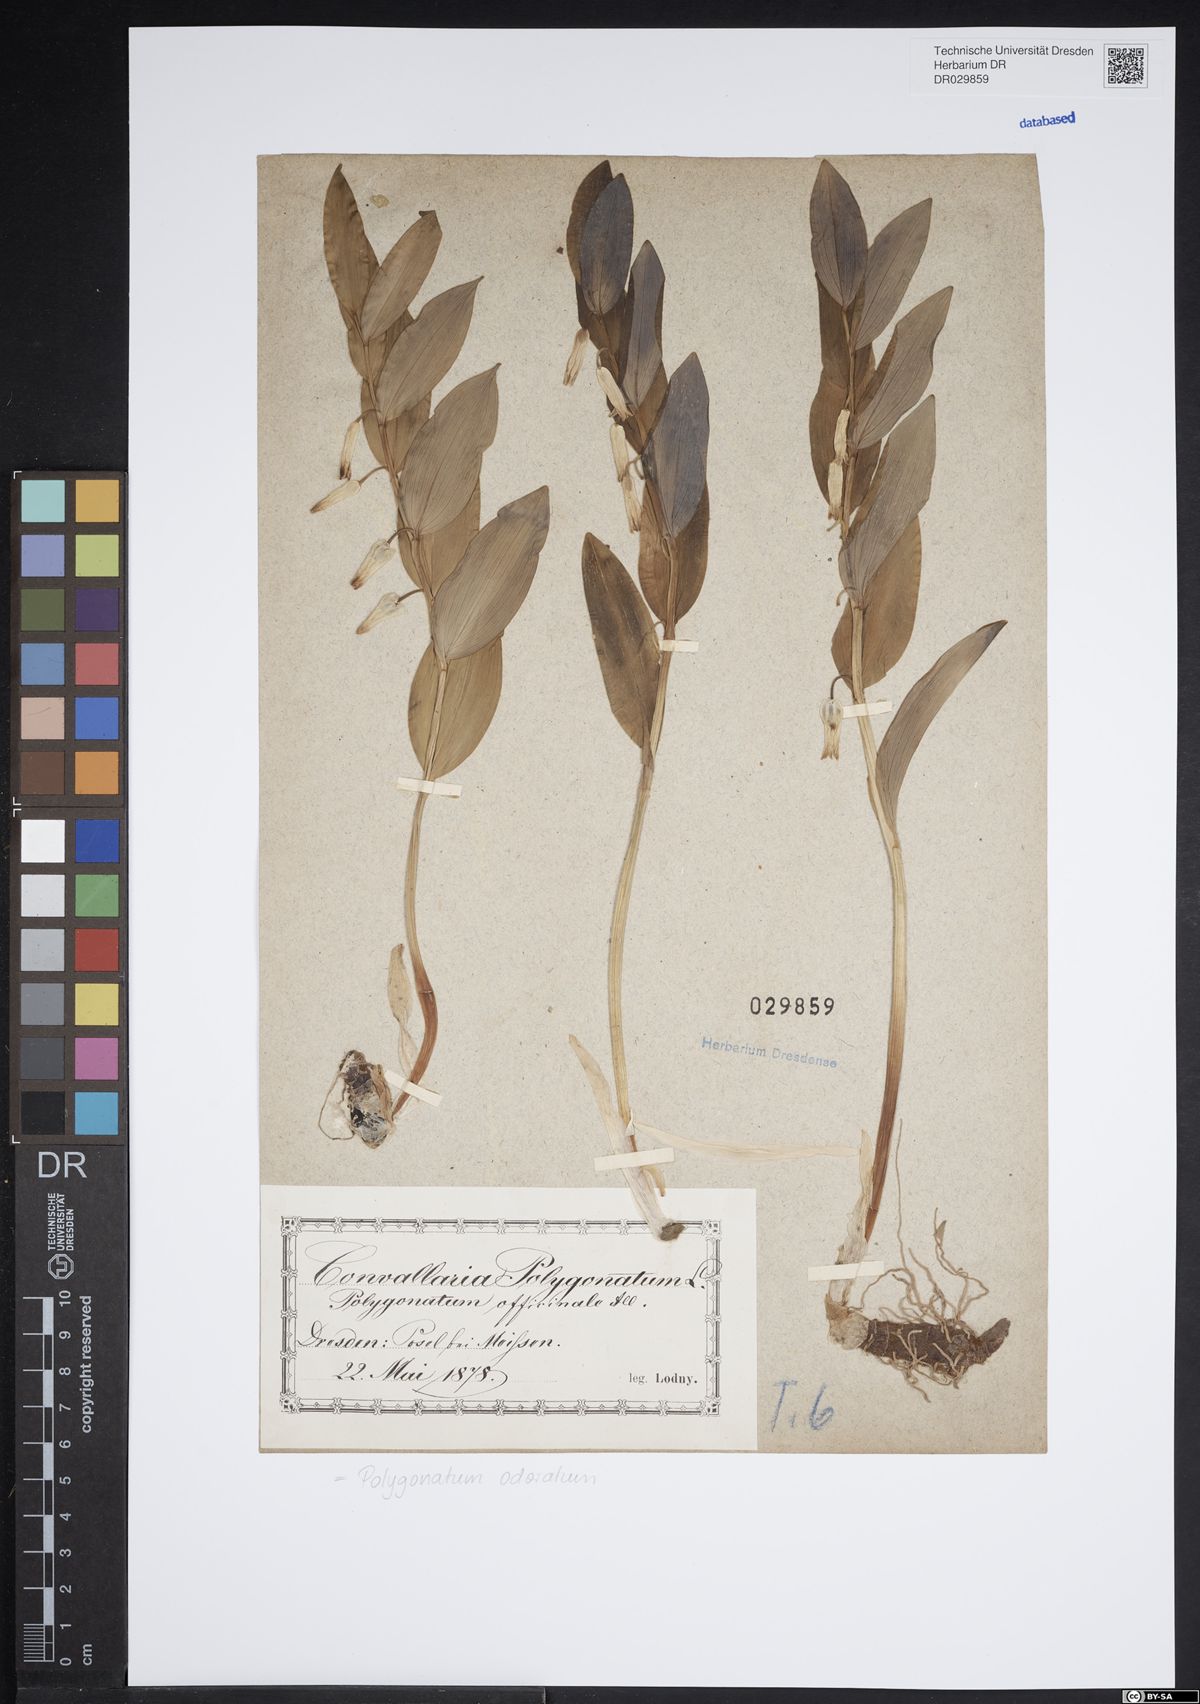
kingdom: Plantae
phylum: Tracheophyta
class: Liliopsida
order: Asparagales
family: Asparagaceae
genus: Polygonatum
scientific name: Polygonatum odoratum
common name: Angular solomon's-seal
